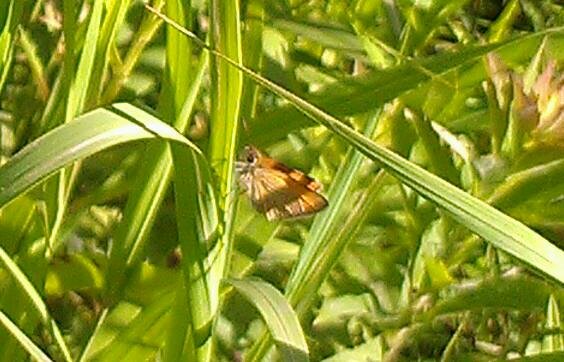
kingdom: Animalia
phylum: Arthropoda
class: Insecta
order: Lepidoptera
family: Hesperiidae
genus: Thymelicus
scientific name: Thymelicus lineola
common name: European Skipper
